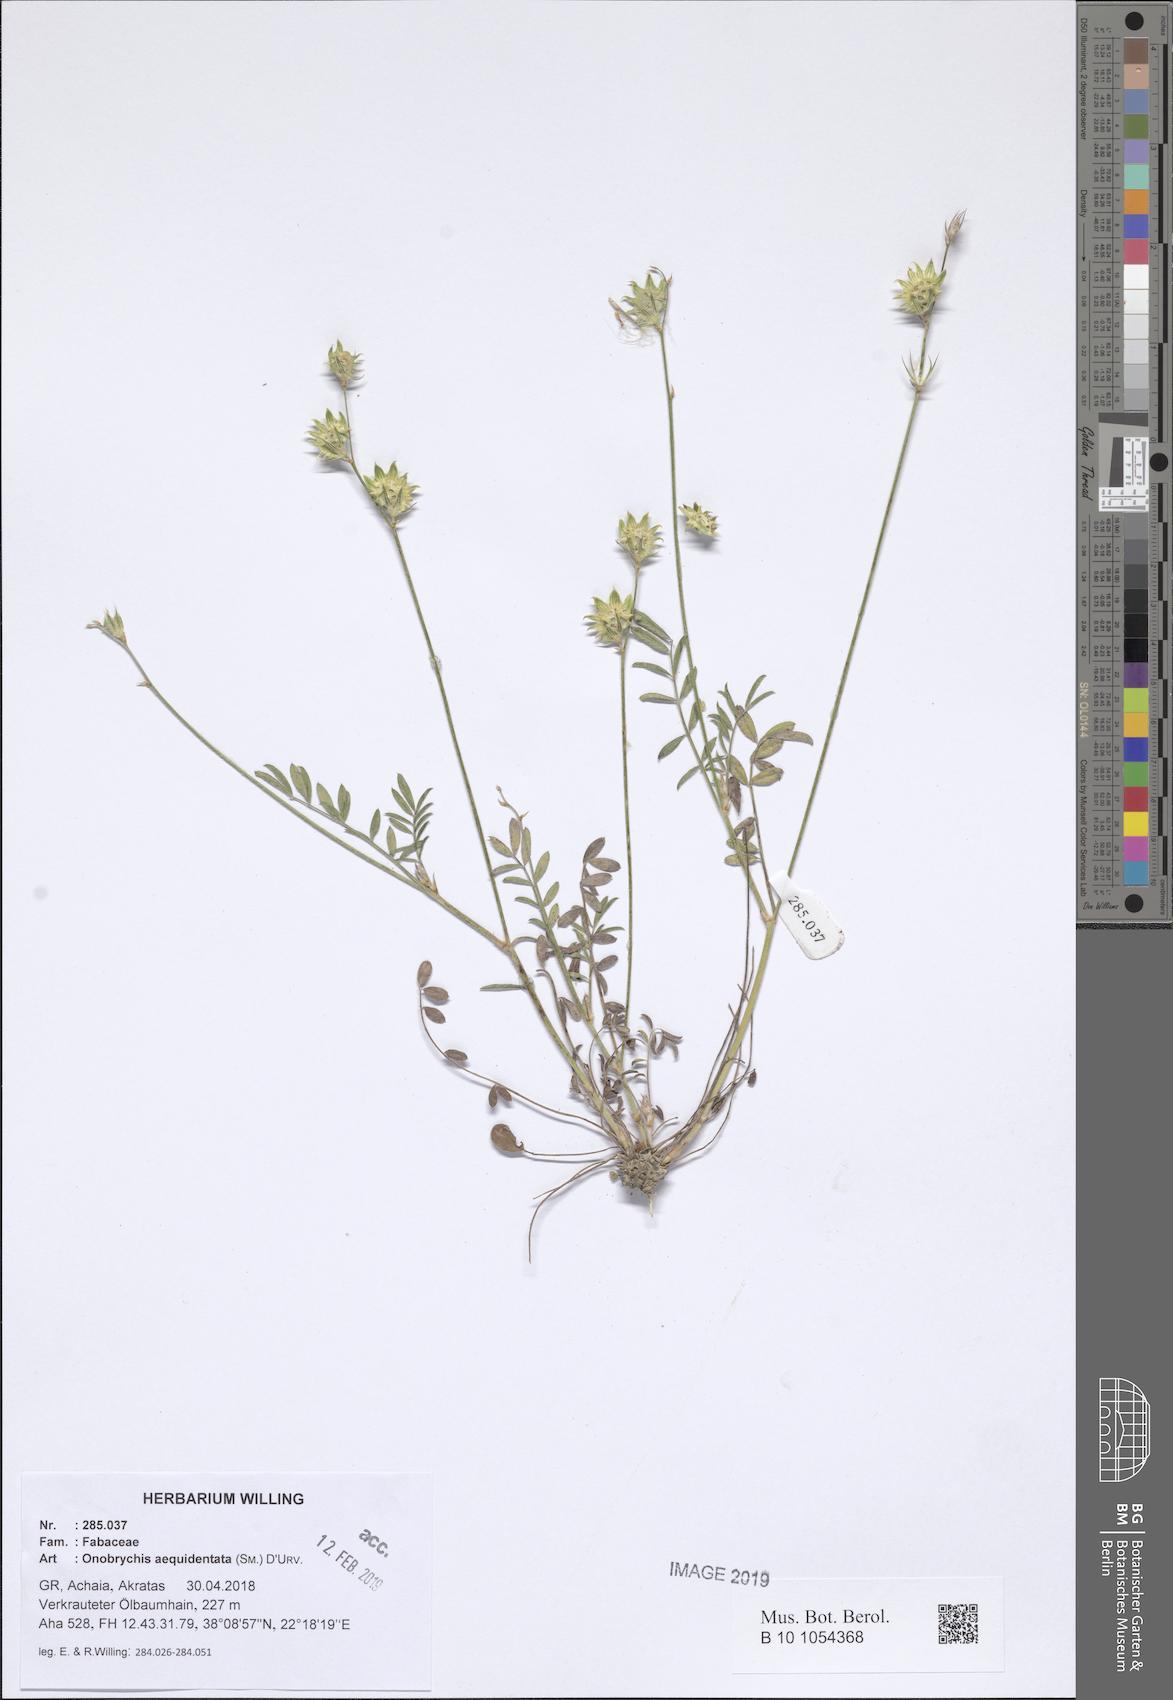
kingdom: Plantae
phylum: Tracheophyta
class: Magnoliopsida
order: Fabales
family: Fabaceae
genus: Onobrychis
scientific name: Onobrychis aequidentata
